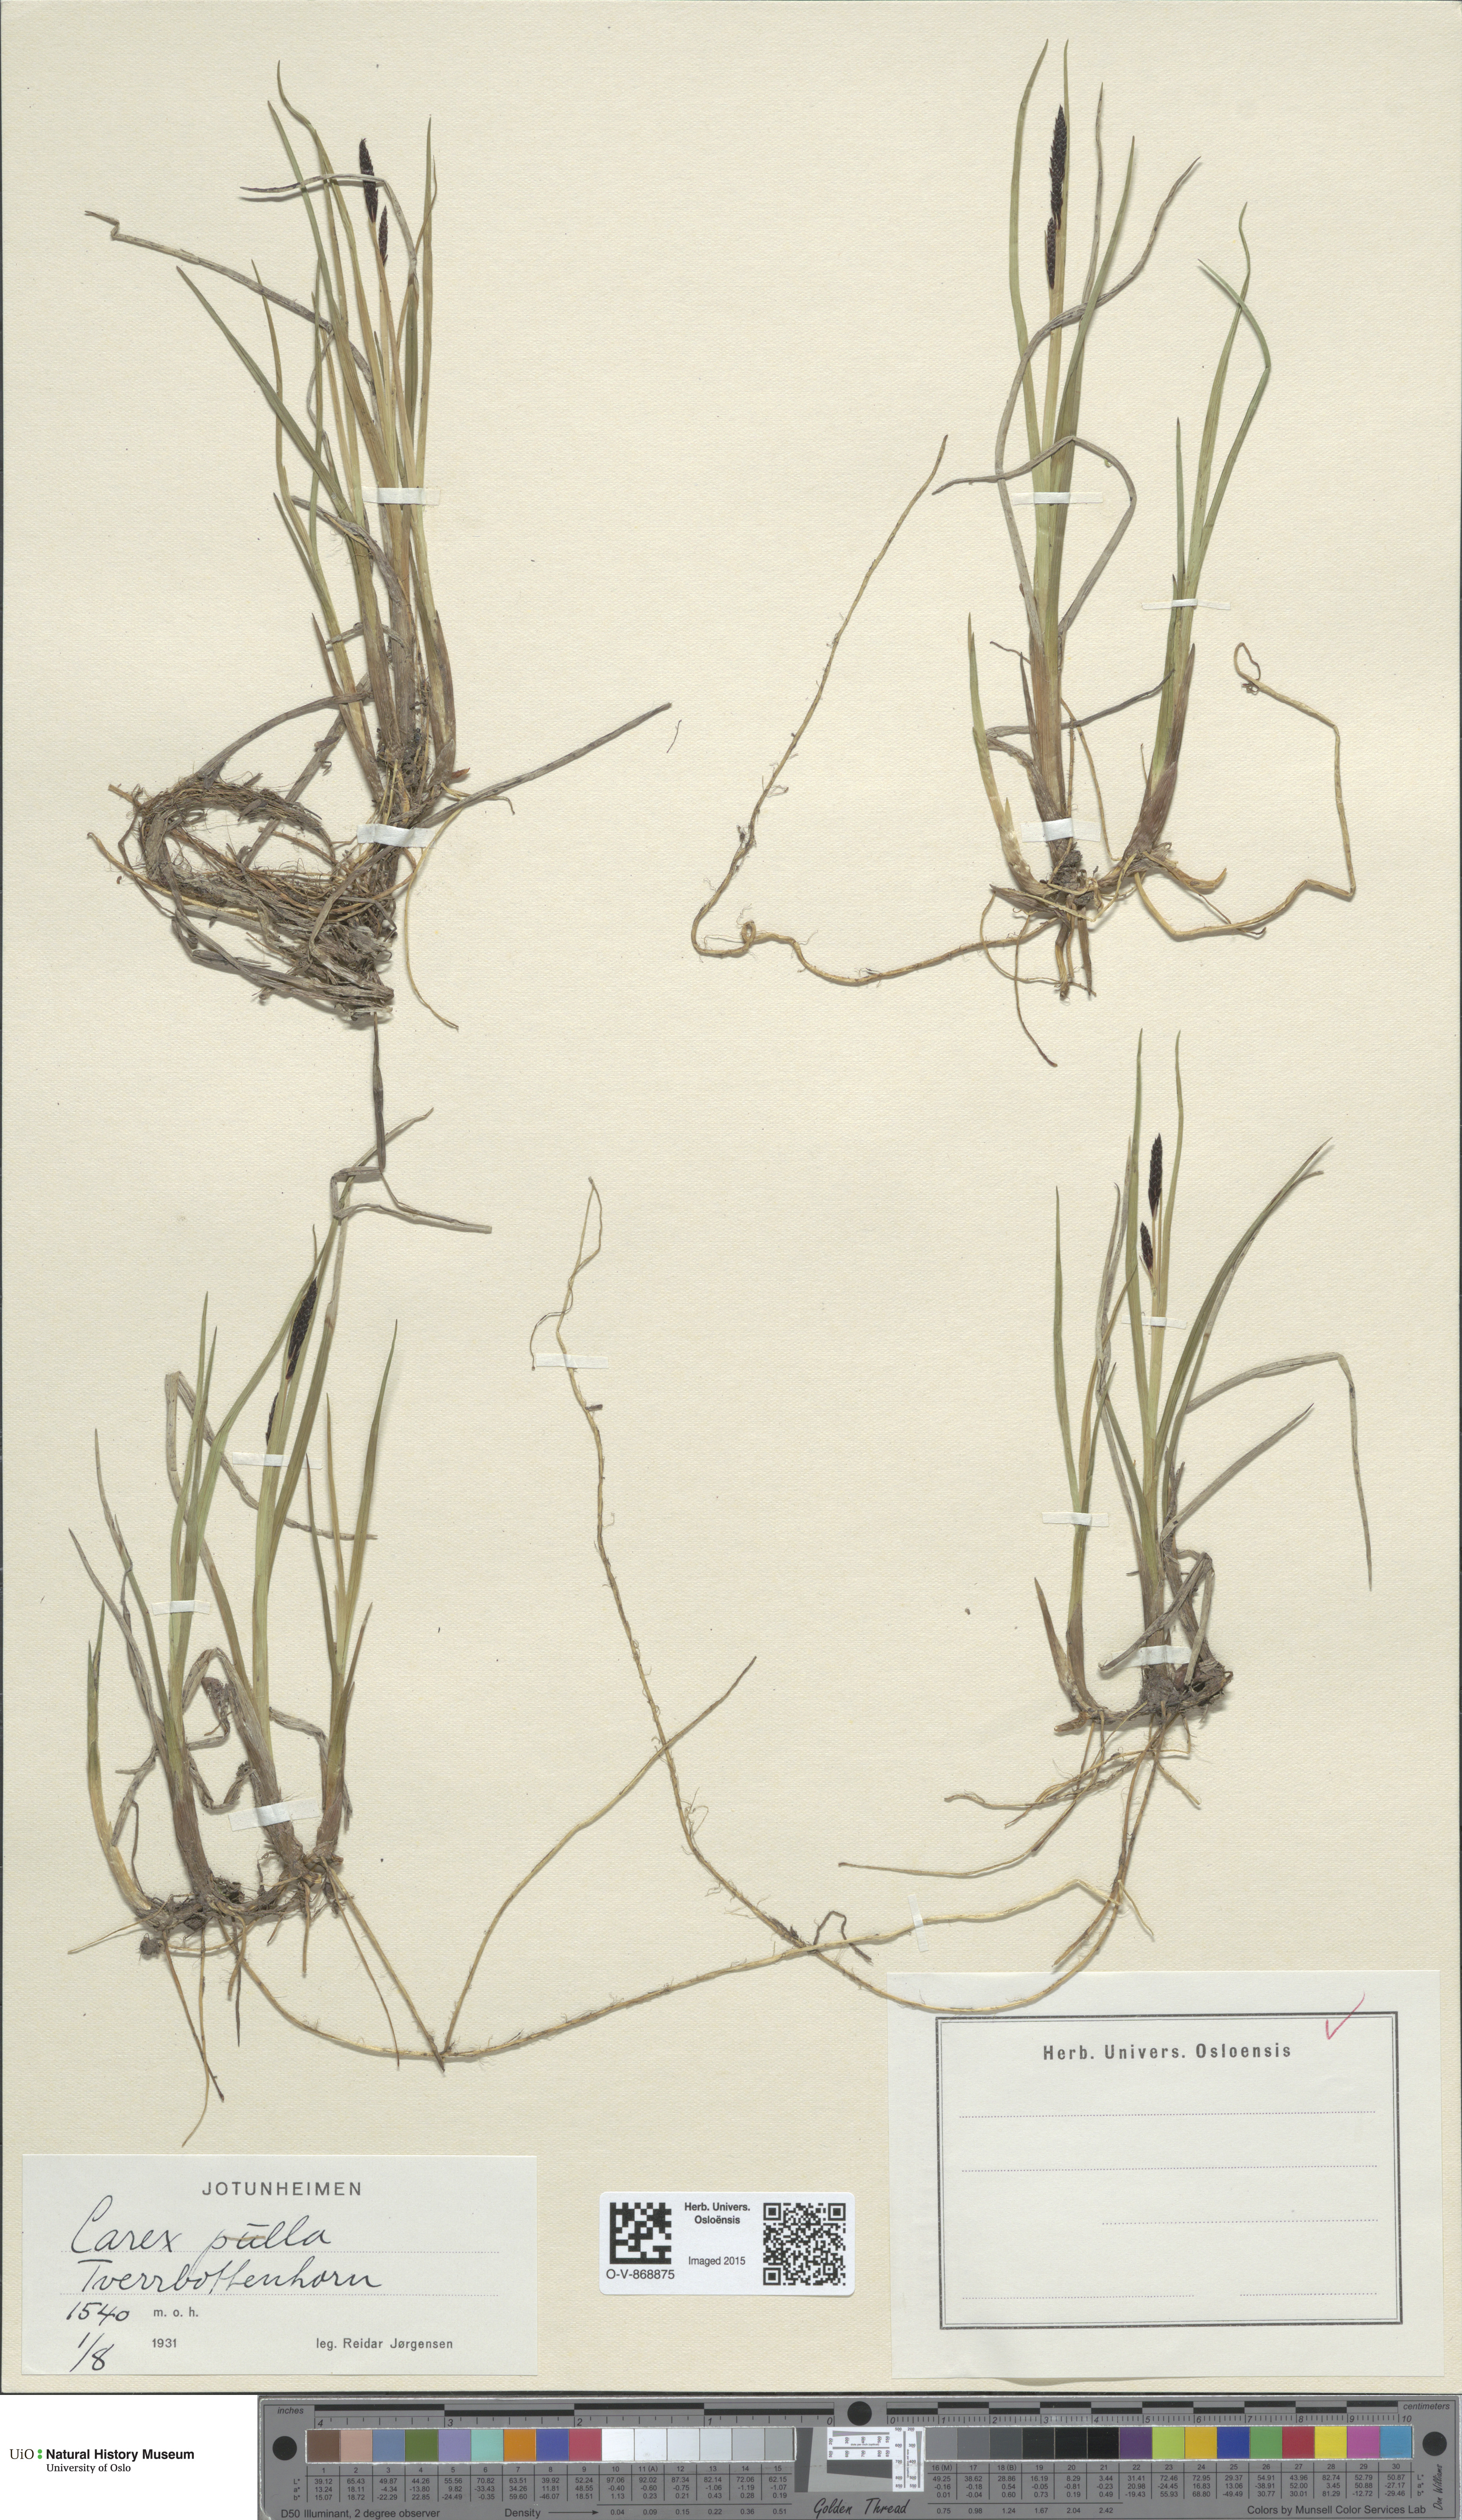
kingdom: Plantae
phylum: Tracheophyta
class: Liliopsida
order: Poales
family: Cyperaceae
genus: Carex
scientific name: Carex saxatilis
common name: Russet sedge
